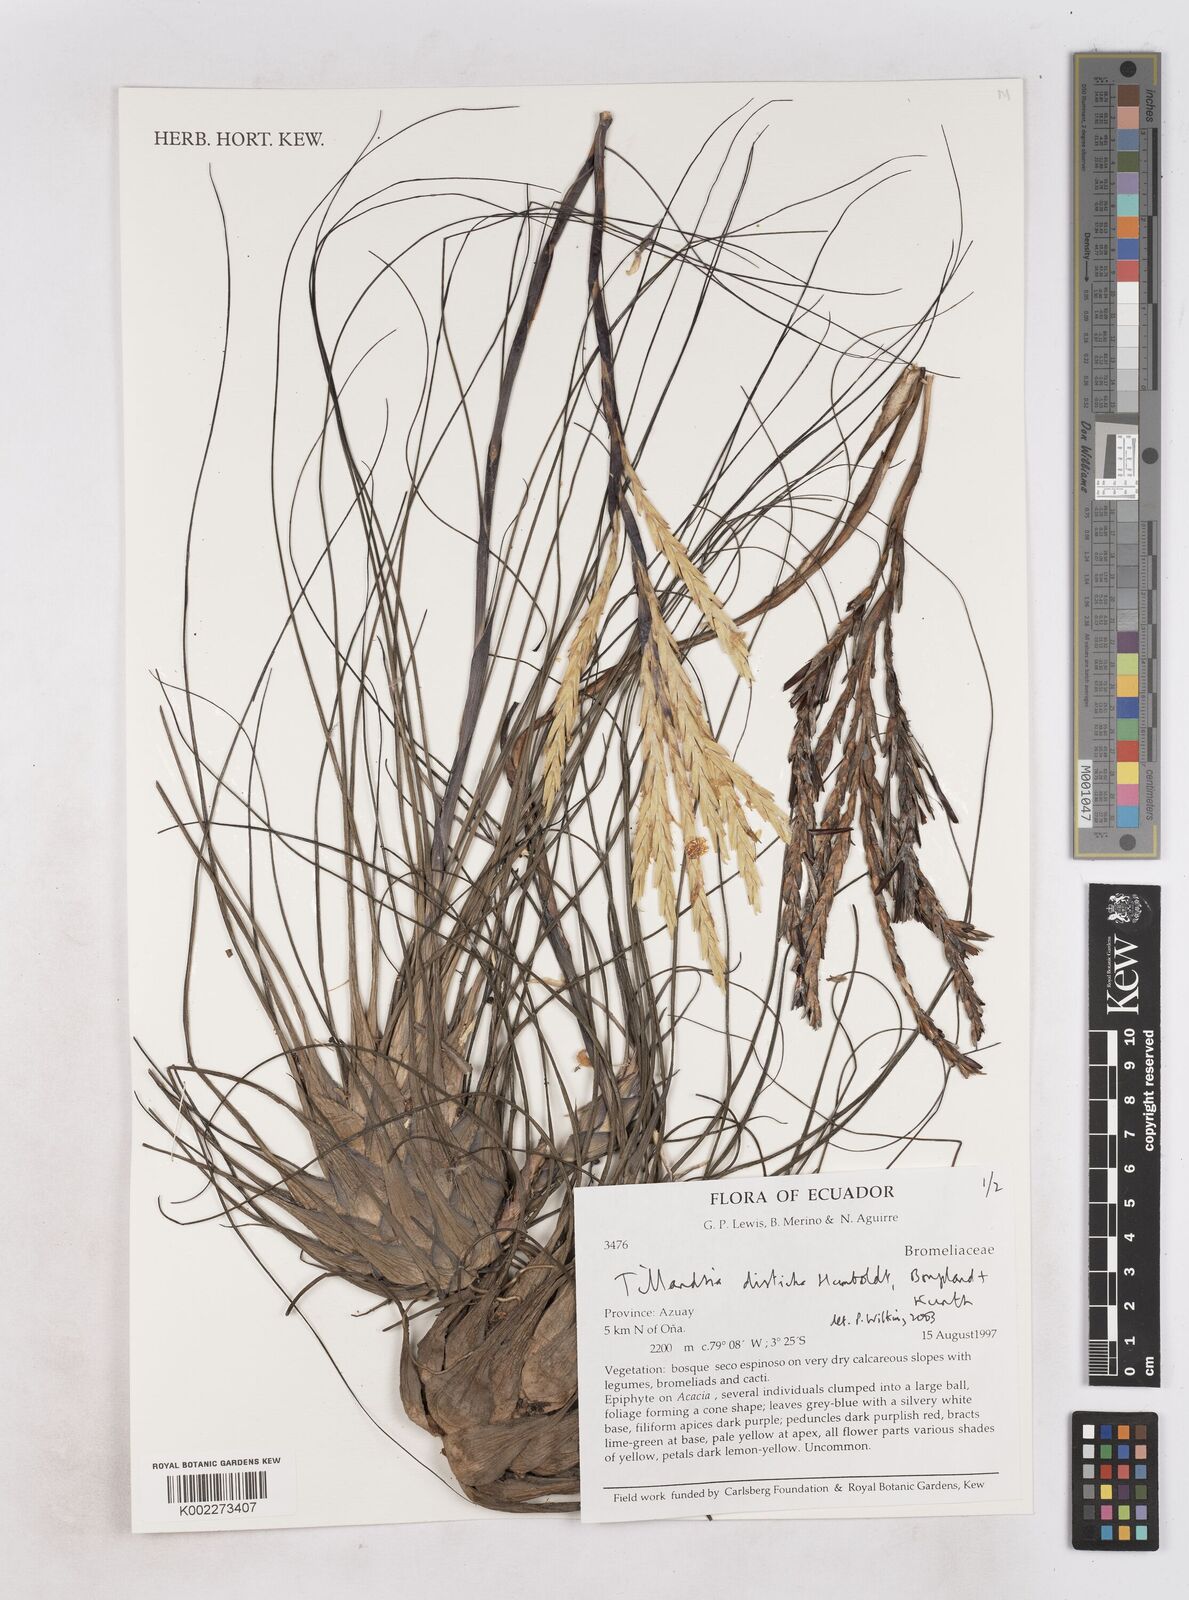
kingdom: Plantae
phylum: Tracheophyta
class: Liliopsida
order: Poales
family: Bromeliaceae
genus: Tillandsia
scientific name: Tillandsia
